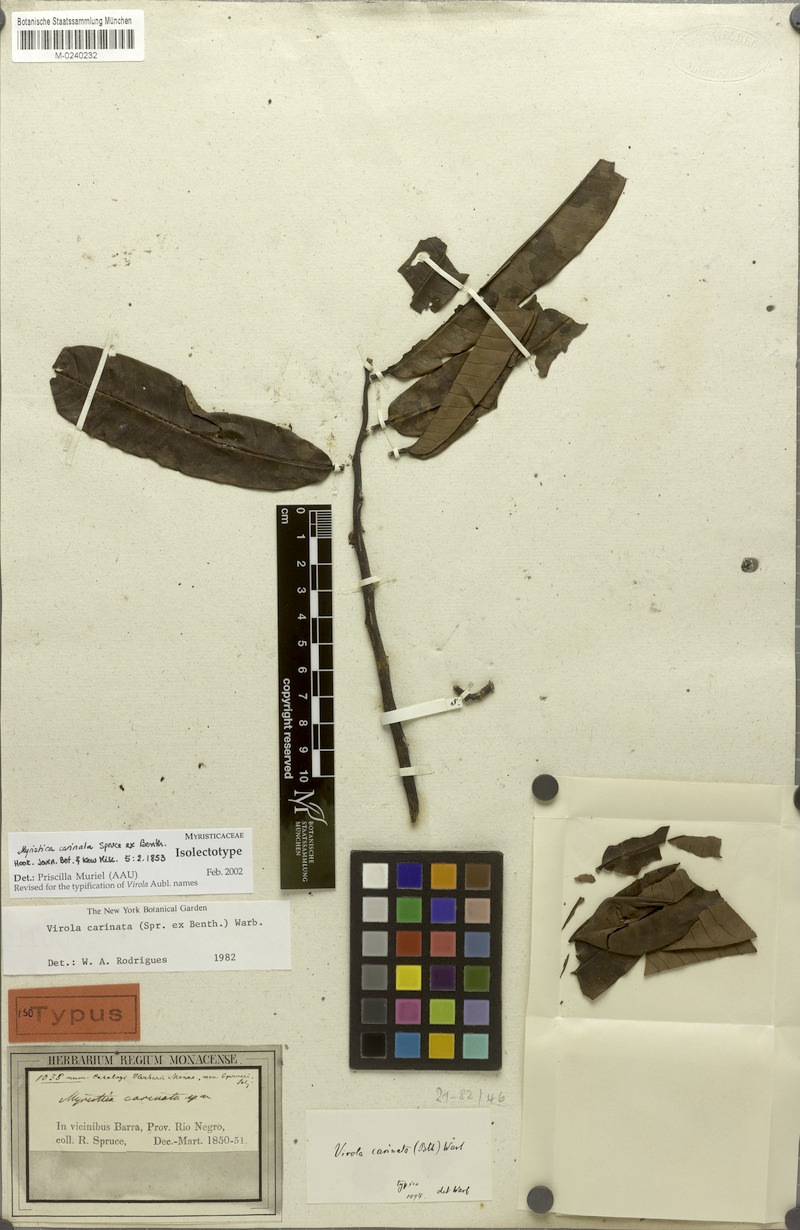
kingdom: Plantae
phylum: Tracheophyta
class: Magnoliopsida
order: Magnoliales
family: Myristicaceae
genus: Virola
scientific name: Virola carinata
